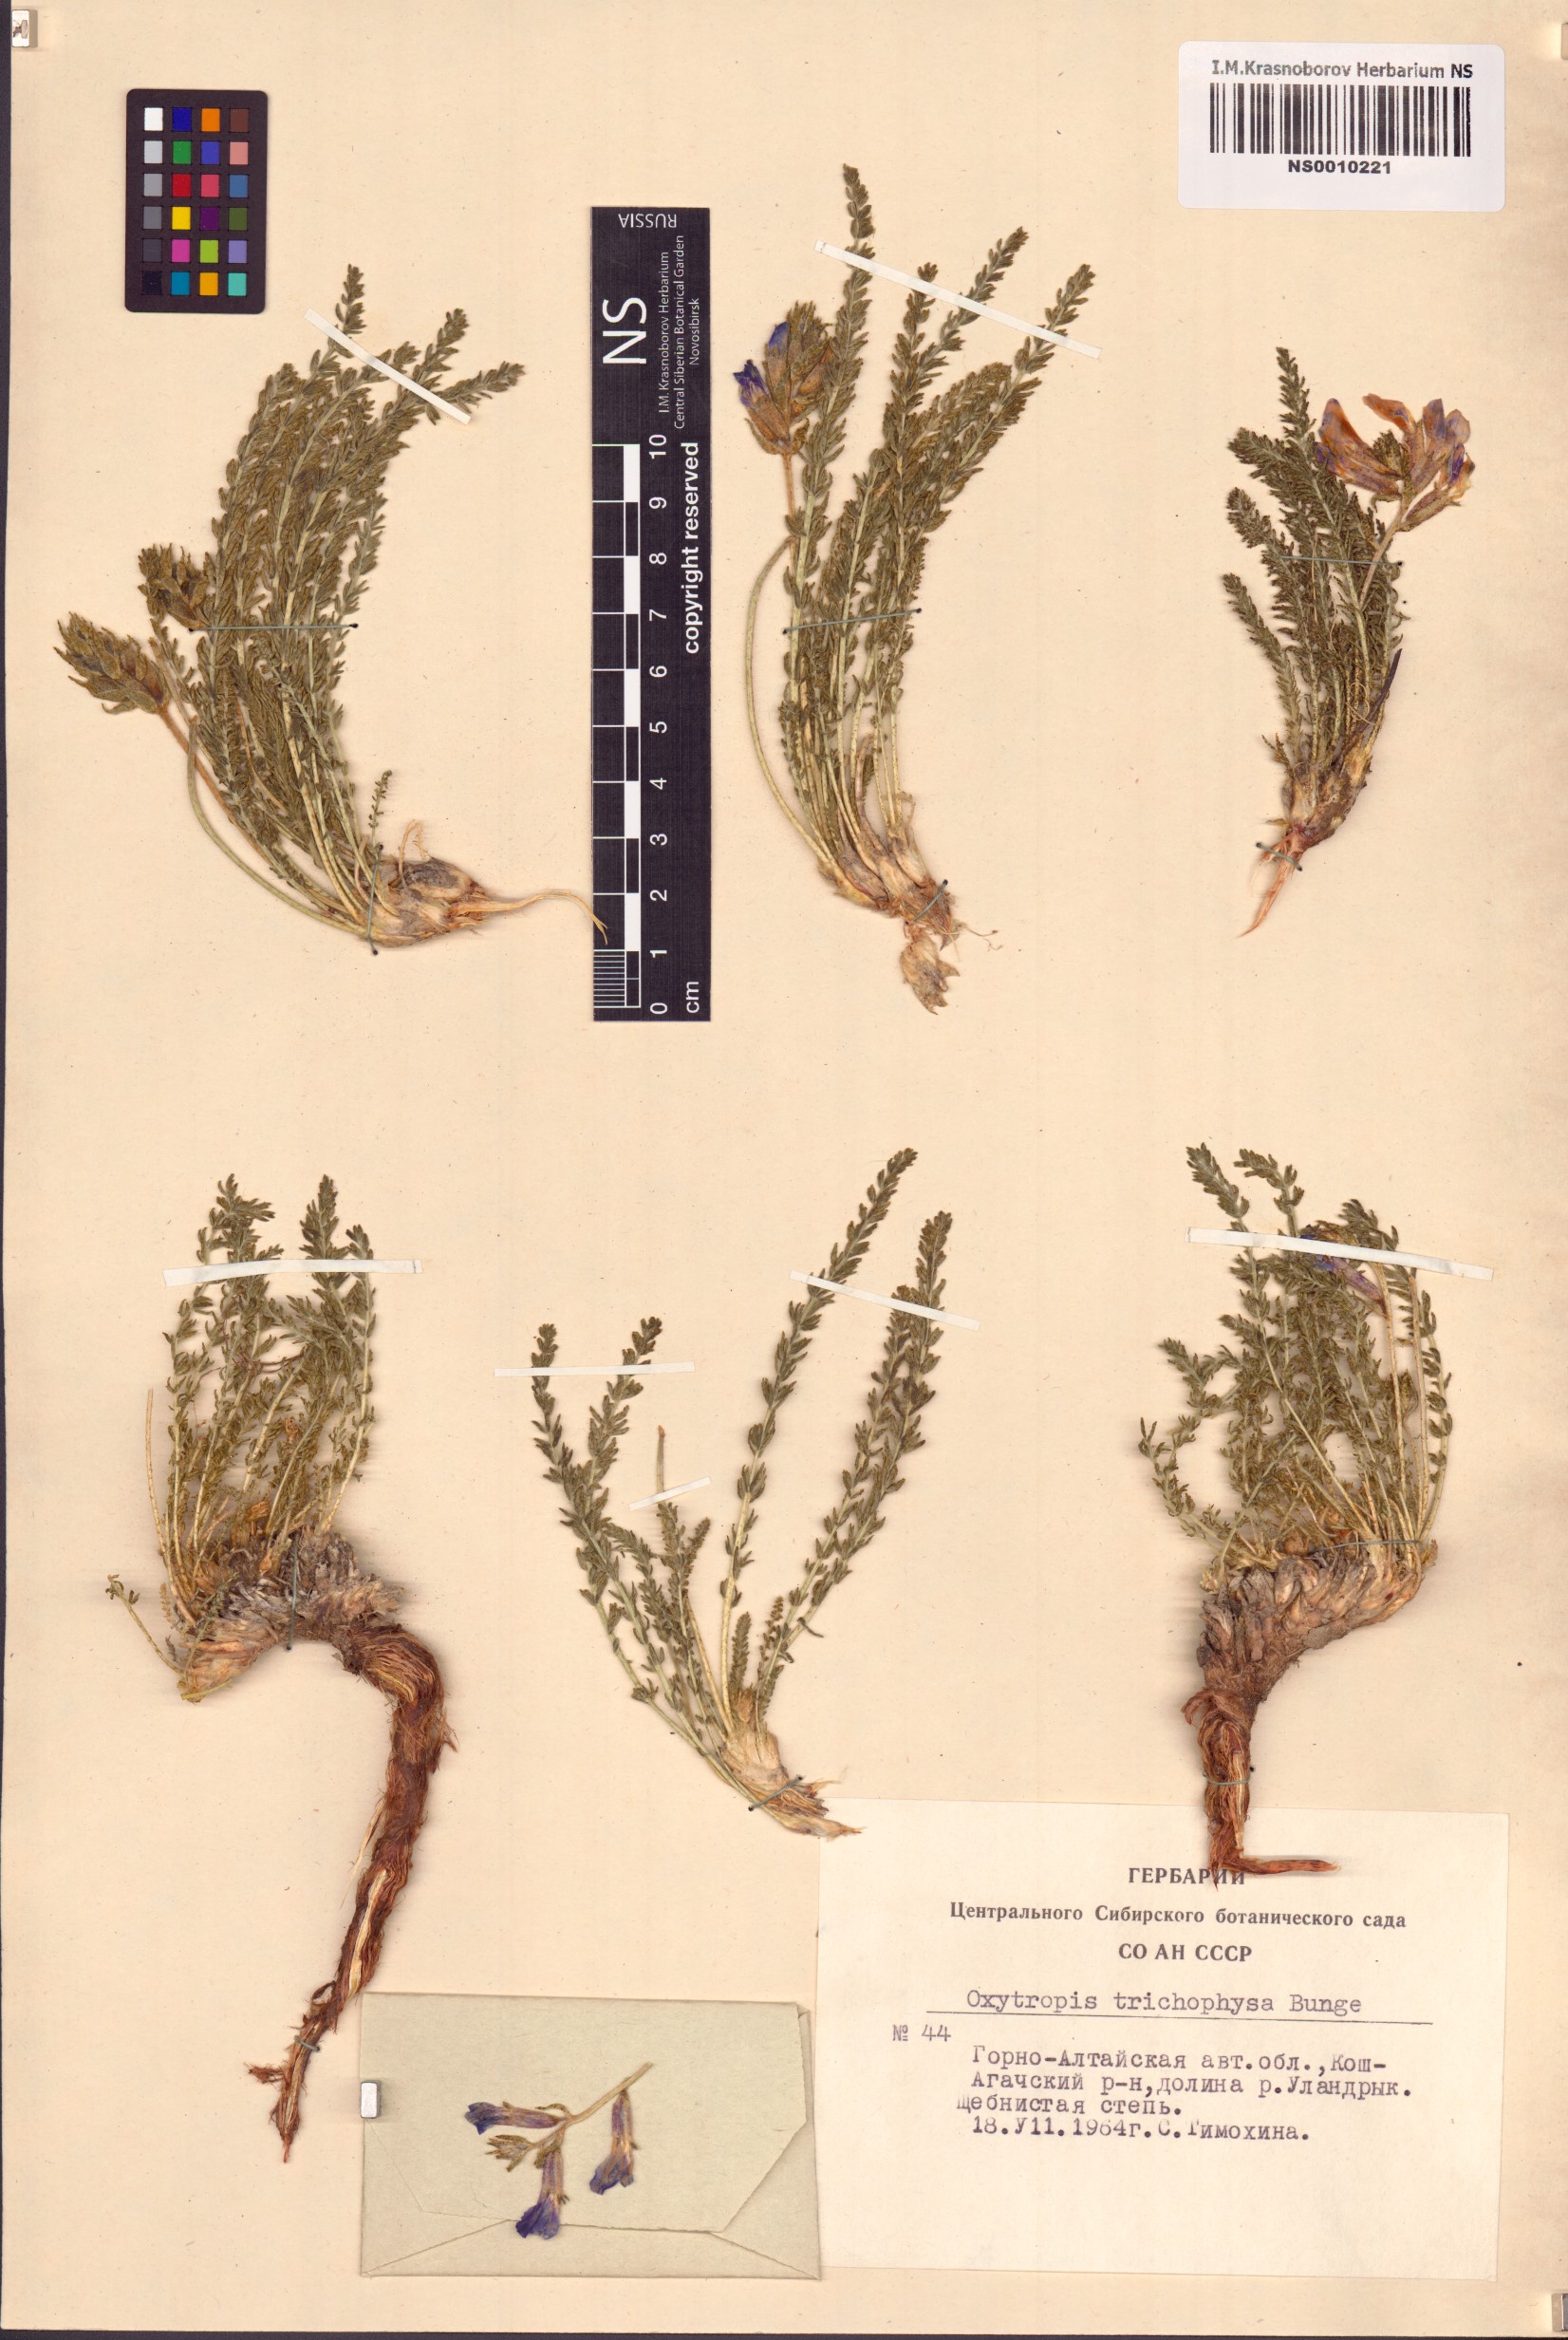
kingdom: Plantae
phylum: Tracheophyta
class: Magnoliopsida
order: Fabales
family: Fabaceae
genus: Oxytropis
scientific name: Oxytropis trichophysa
